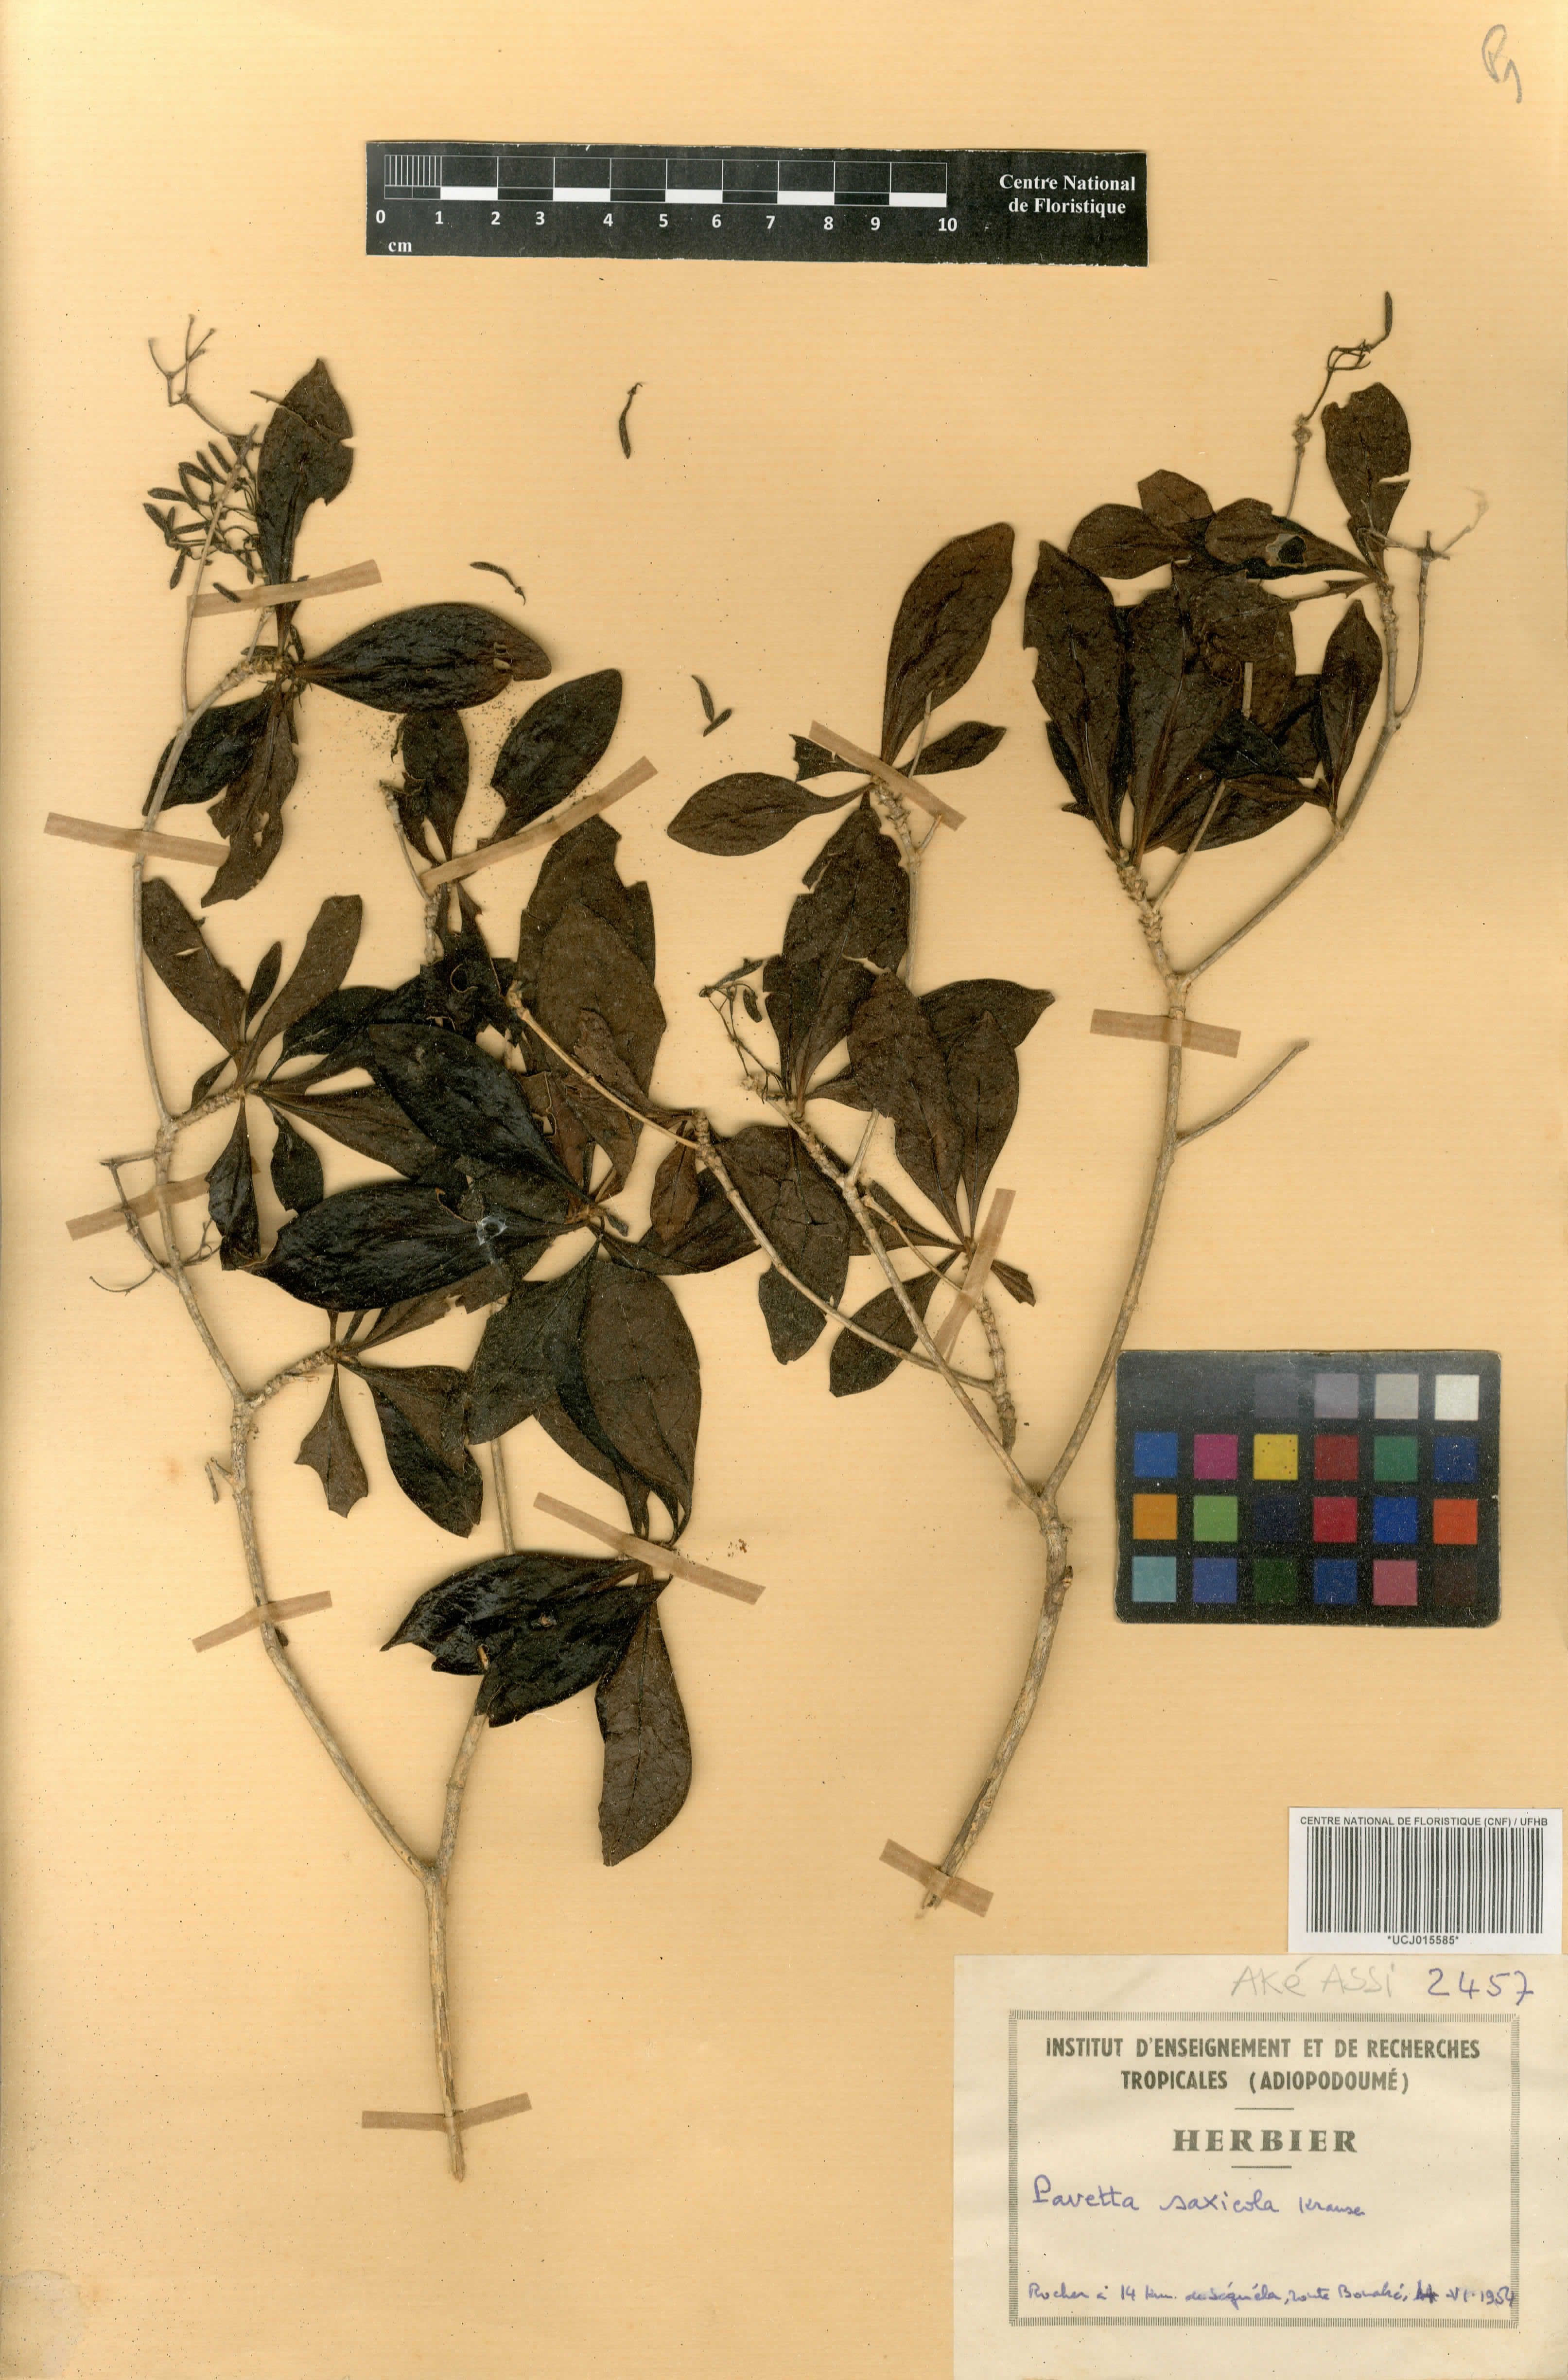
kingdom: Plantae
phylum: Tracheophyta
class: Magnoliopsida
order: Gentianales
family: Rubiaceae
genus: Pavetta
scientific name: Pavetta gardeniifolia
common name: Common brides-bush
